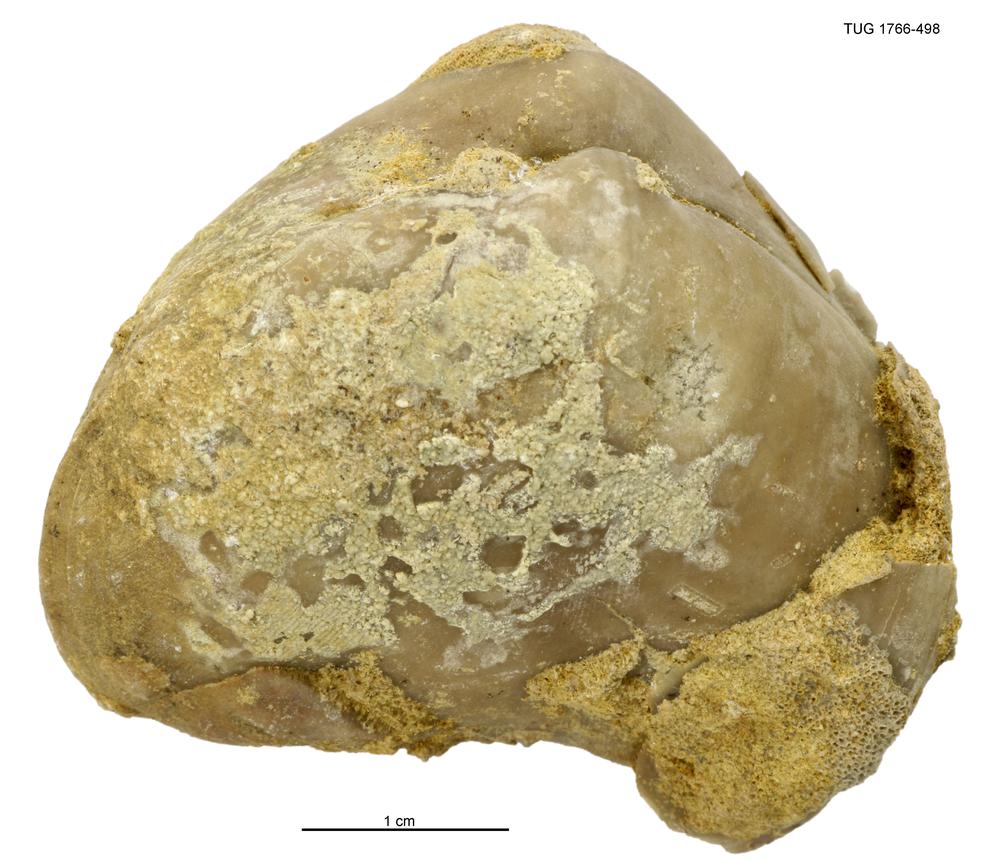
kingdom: Animalia
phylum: Brachiopoda
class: Rhynchonellata
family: Porambonitidae
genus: Porambonites
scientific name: Porambonites
